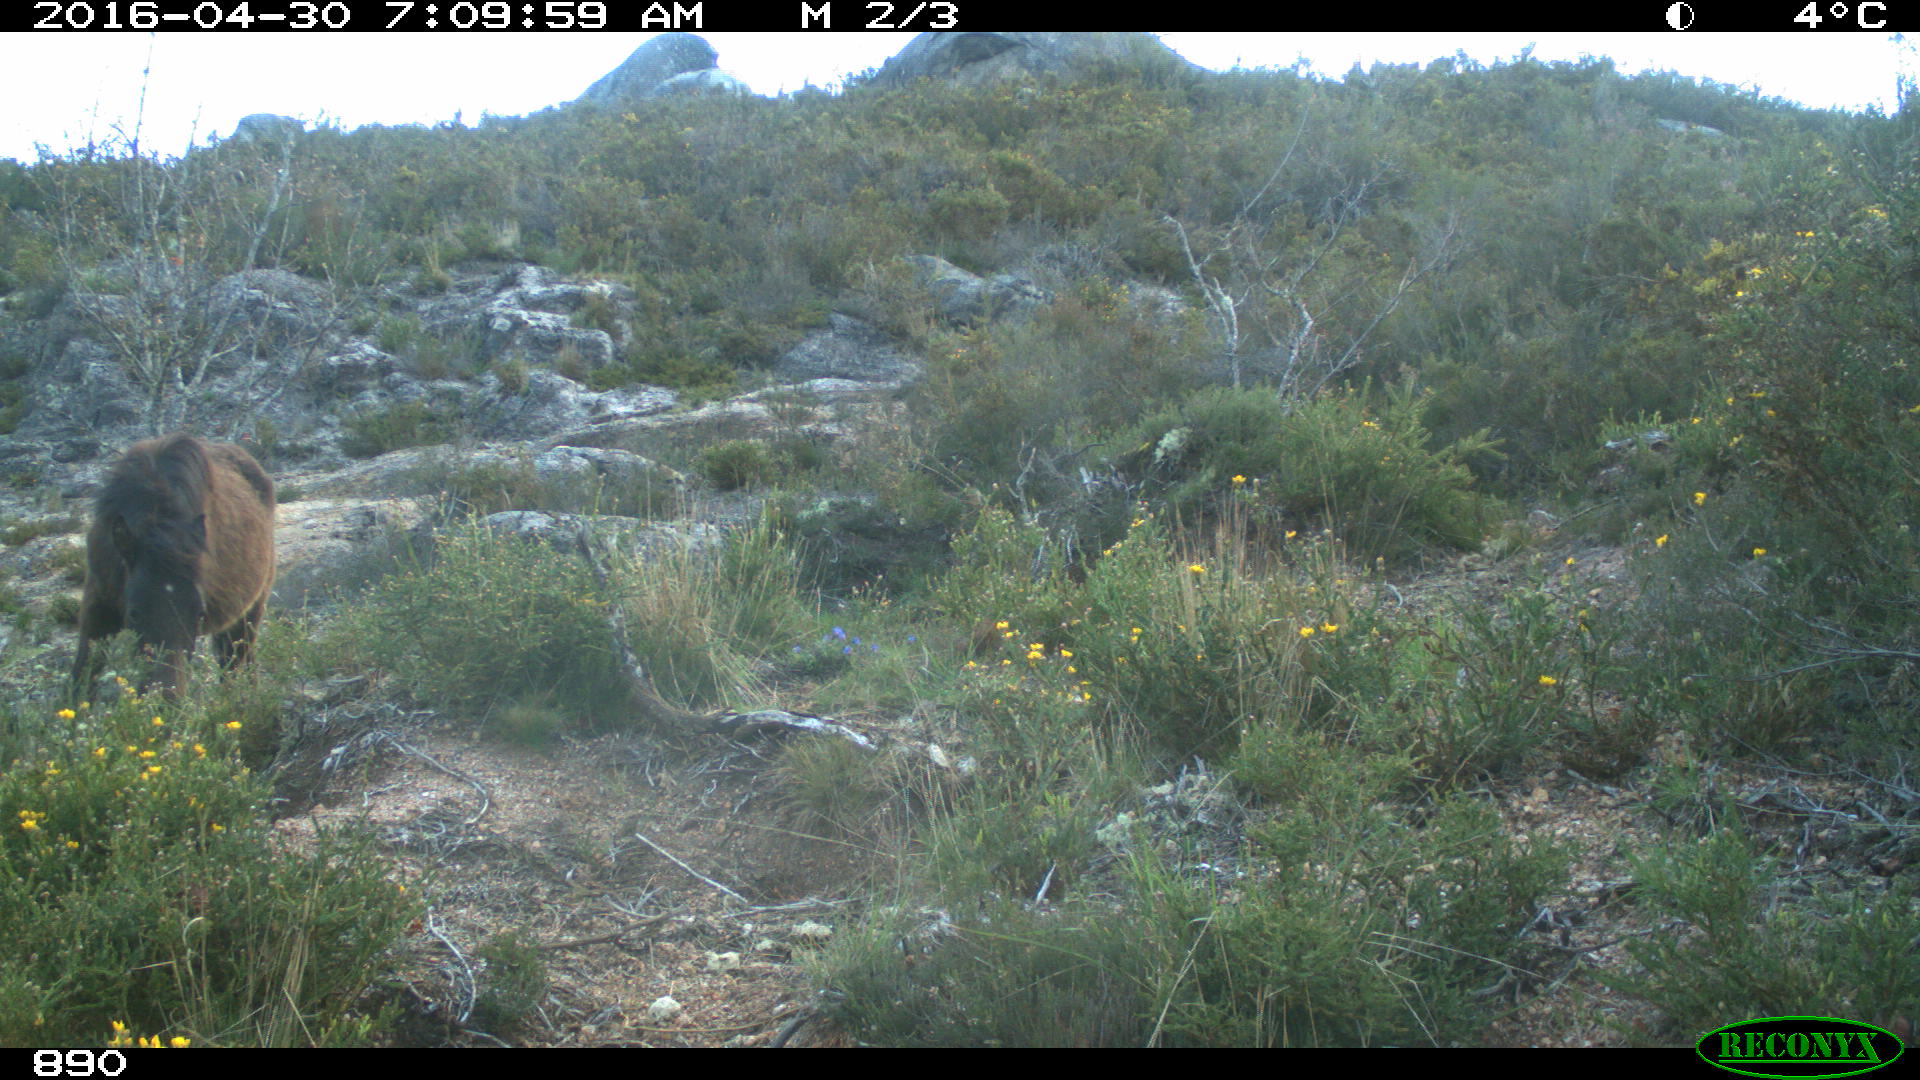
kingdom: Animalia
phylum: Chordata
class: Mammalia
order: Perissodactyla
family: Equidae
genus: Equus
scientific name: Equus caballus
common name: Horse
